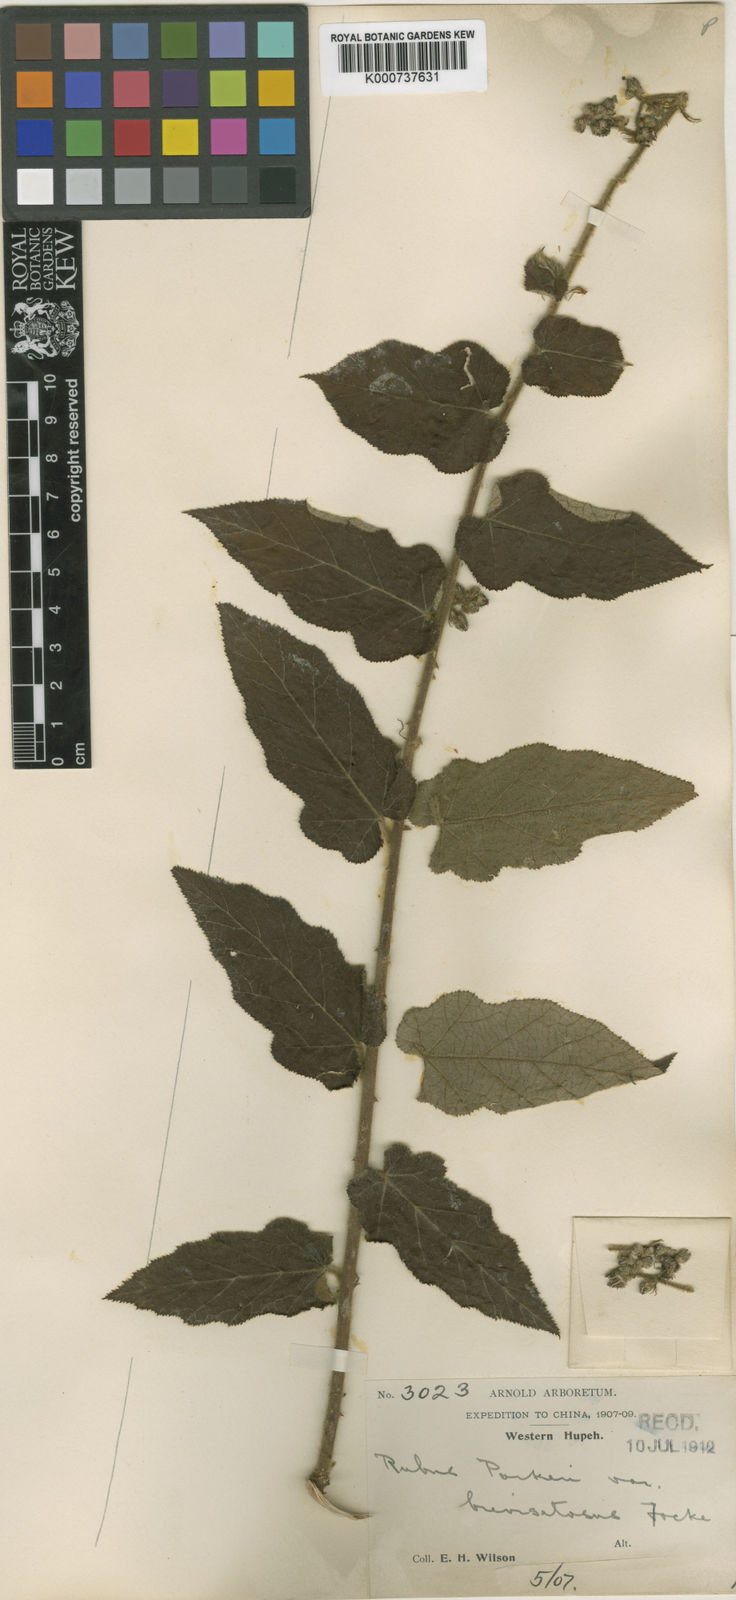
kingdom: Plantae
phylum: Tracheophyta
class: Magnoliopsida
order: Rosales
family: Rosaceae
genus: Rubus
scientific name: Rubus parkeri
